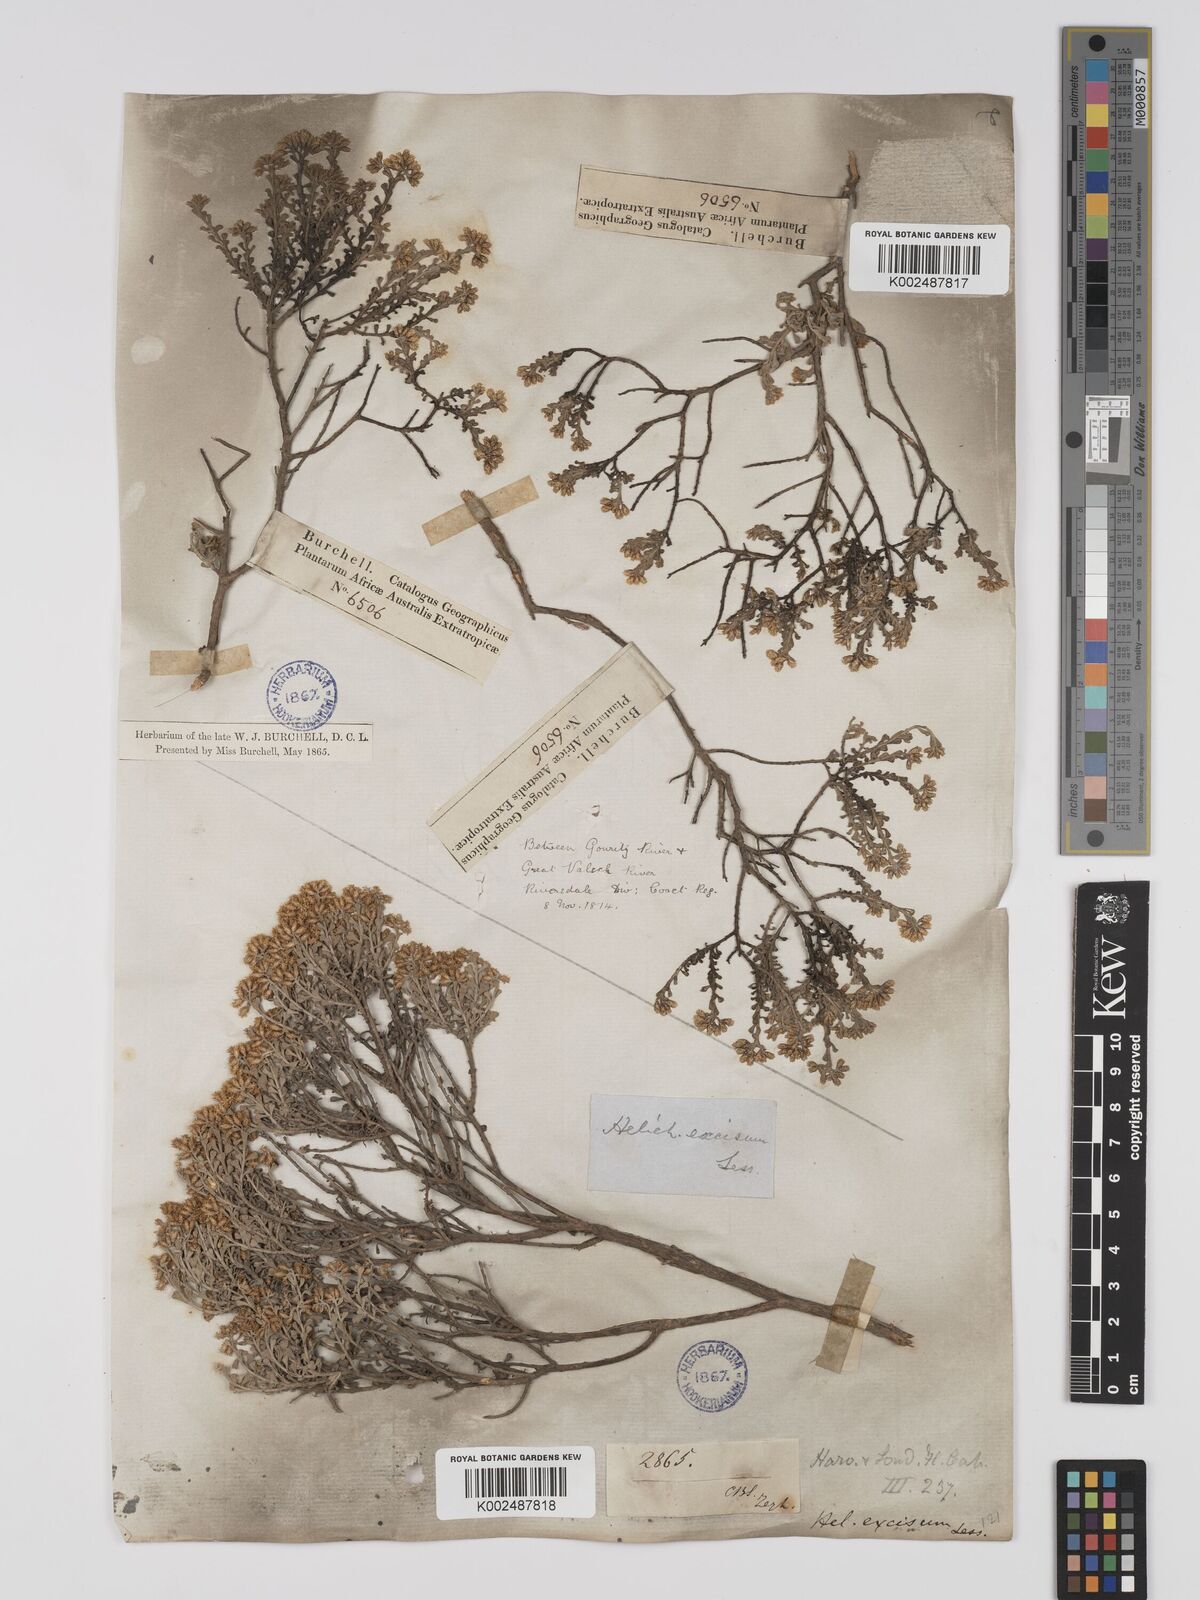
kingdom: Plantae
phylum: Tracheophyta
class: Magnoliopsida
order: Asterales
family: Asteraceae
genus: Helichrysum
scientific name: Helichrysum excisum
